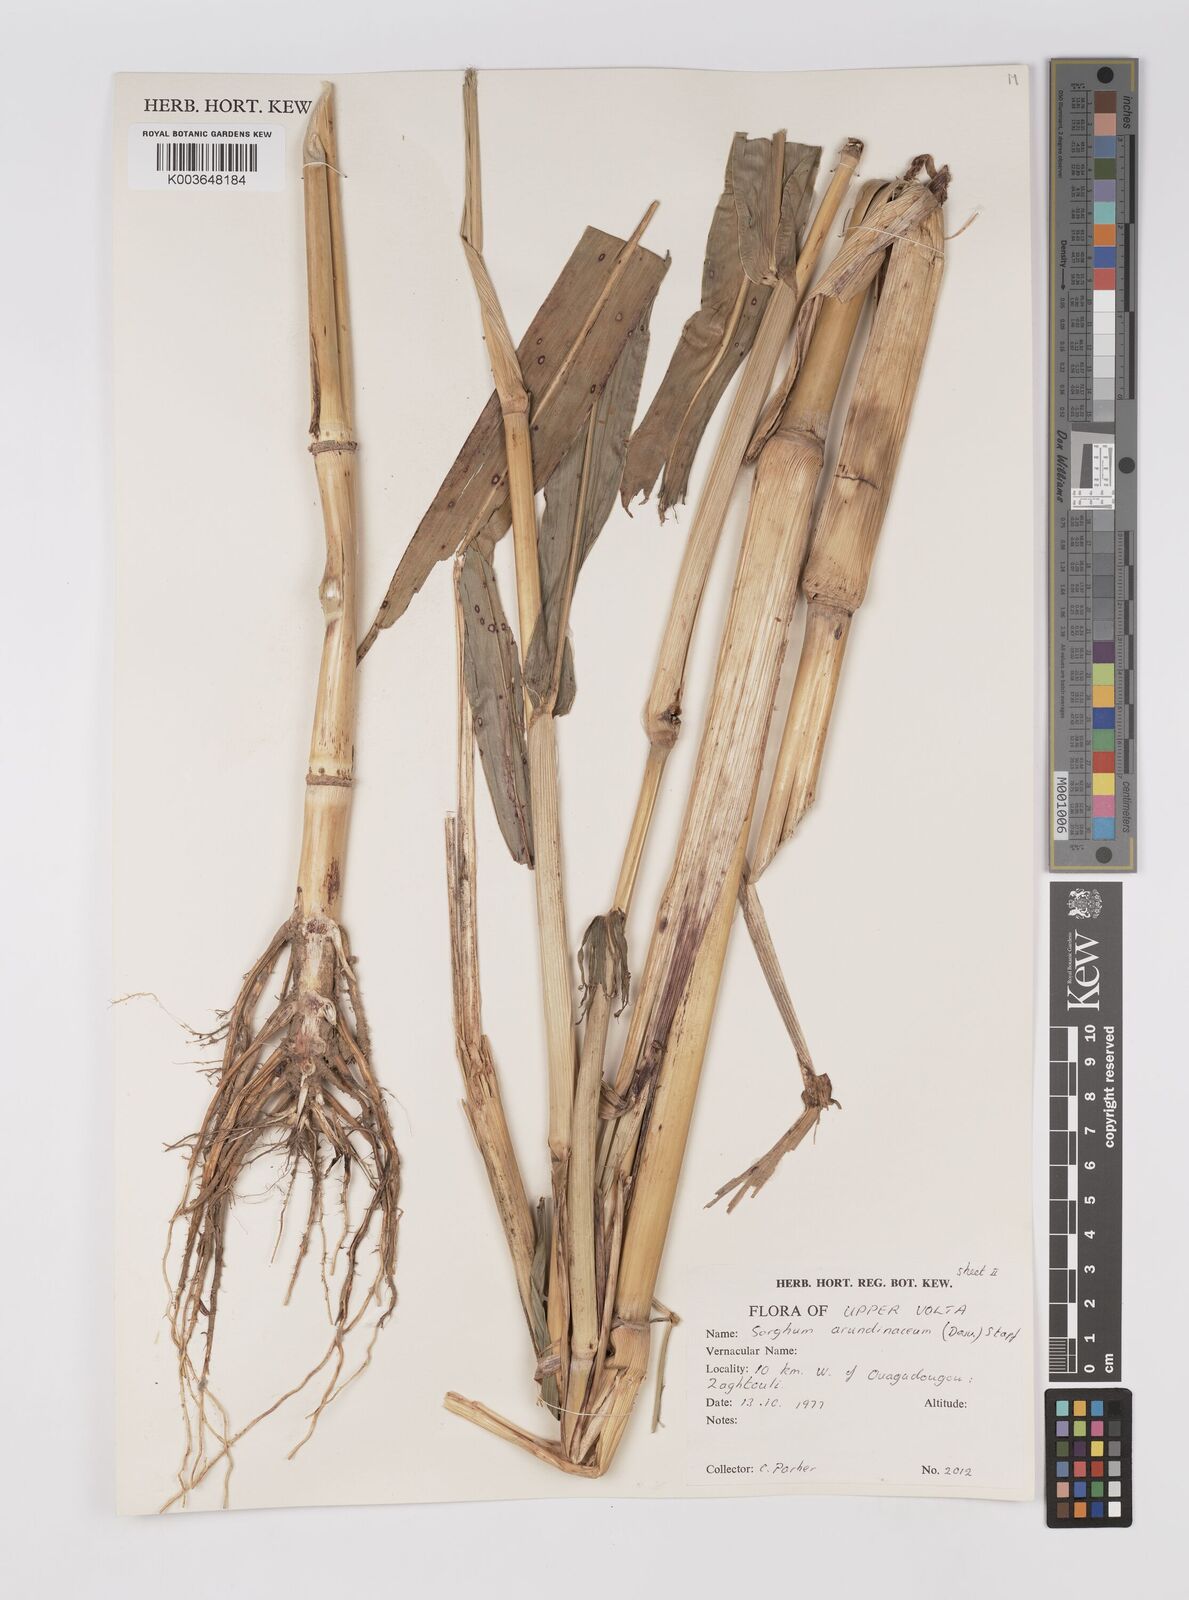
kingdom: Plantae
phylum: Tracheophyta
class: Liliopsida
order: Poales
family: Poaceae
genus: Sorghum
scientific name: Sorghum arundinaceum
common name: Sorghum
